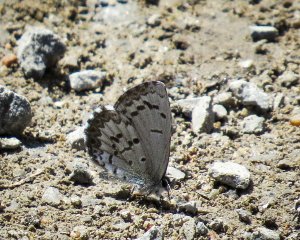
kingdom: Animalia
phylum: Arthropoda
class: Insecta
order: Lepidoptera
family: Lycaenidae
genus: Celastrina
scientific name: Celastrina
